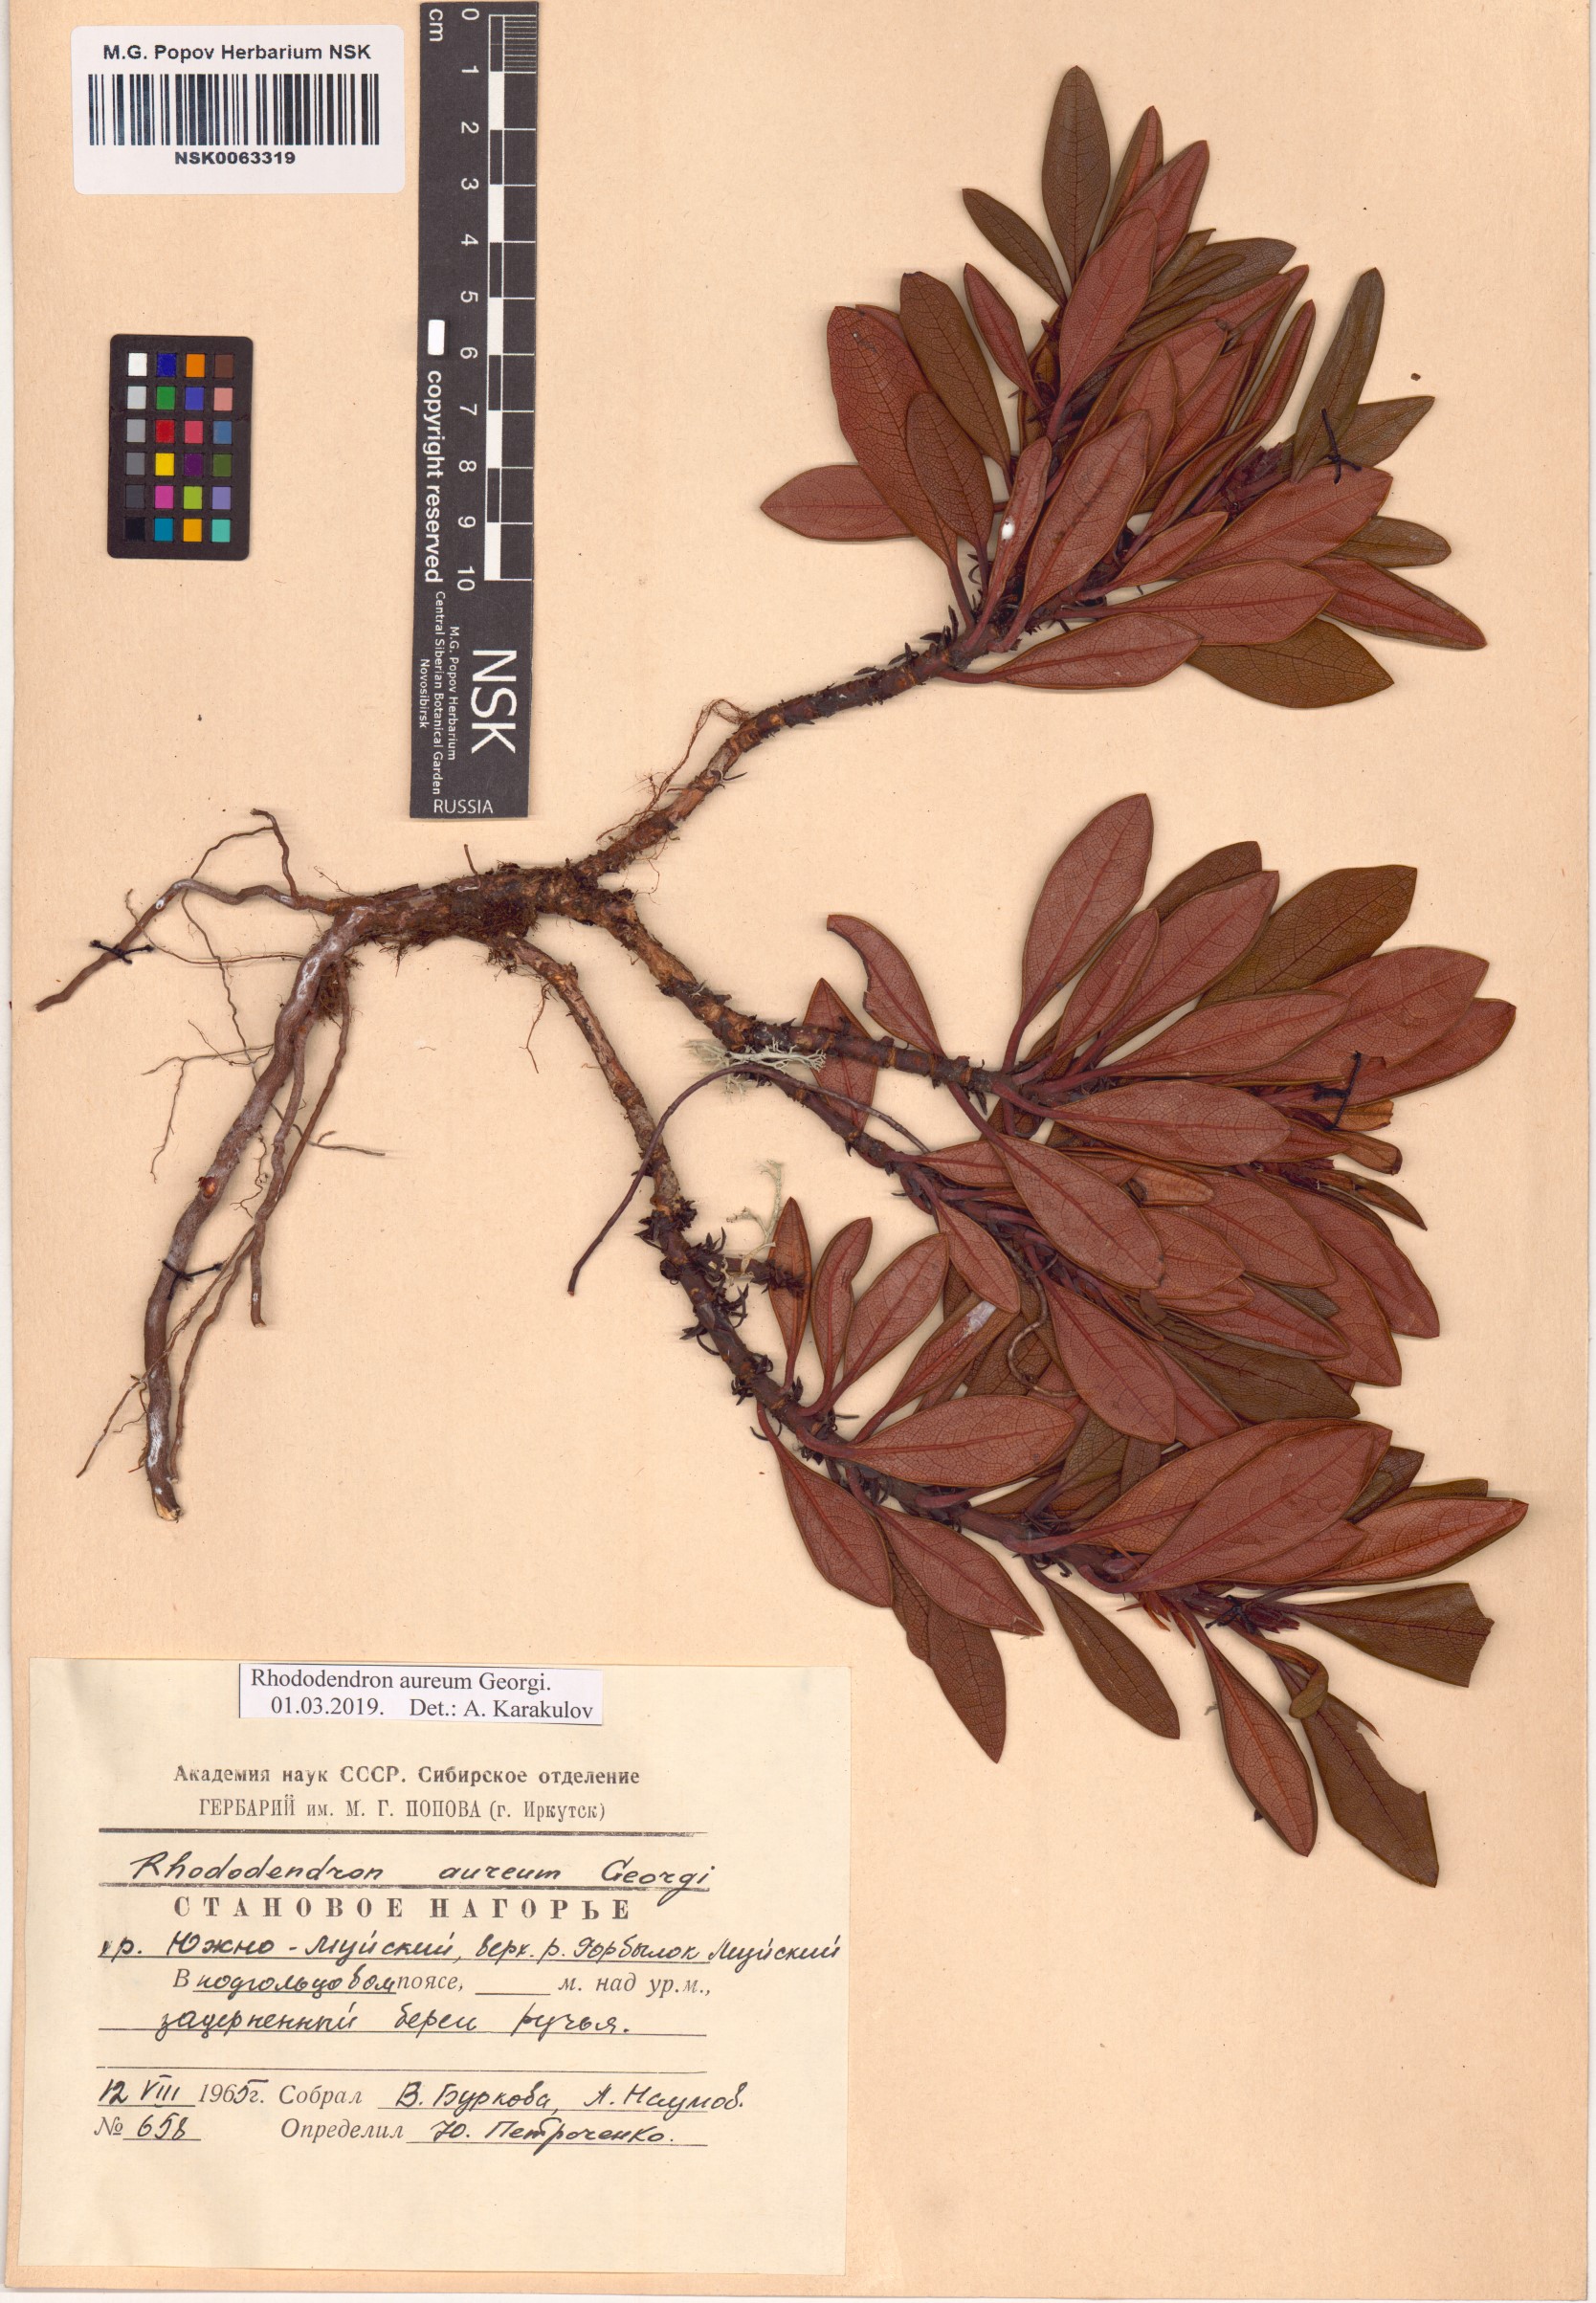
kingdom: Plantae
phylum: Tracheophyta
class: Magnoliopsida
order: Ericales
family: Ericaceae
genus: Rhododendron
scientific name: Rhododendron aureum
